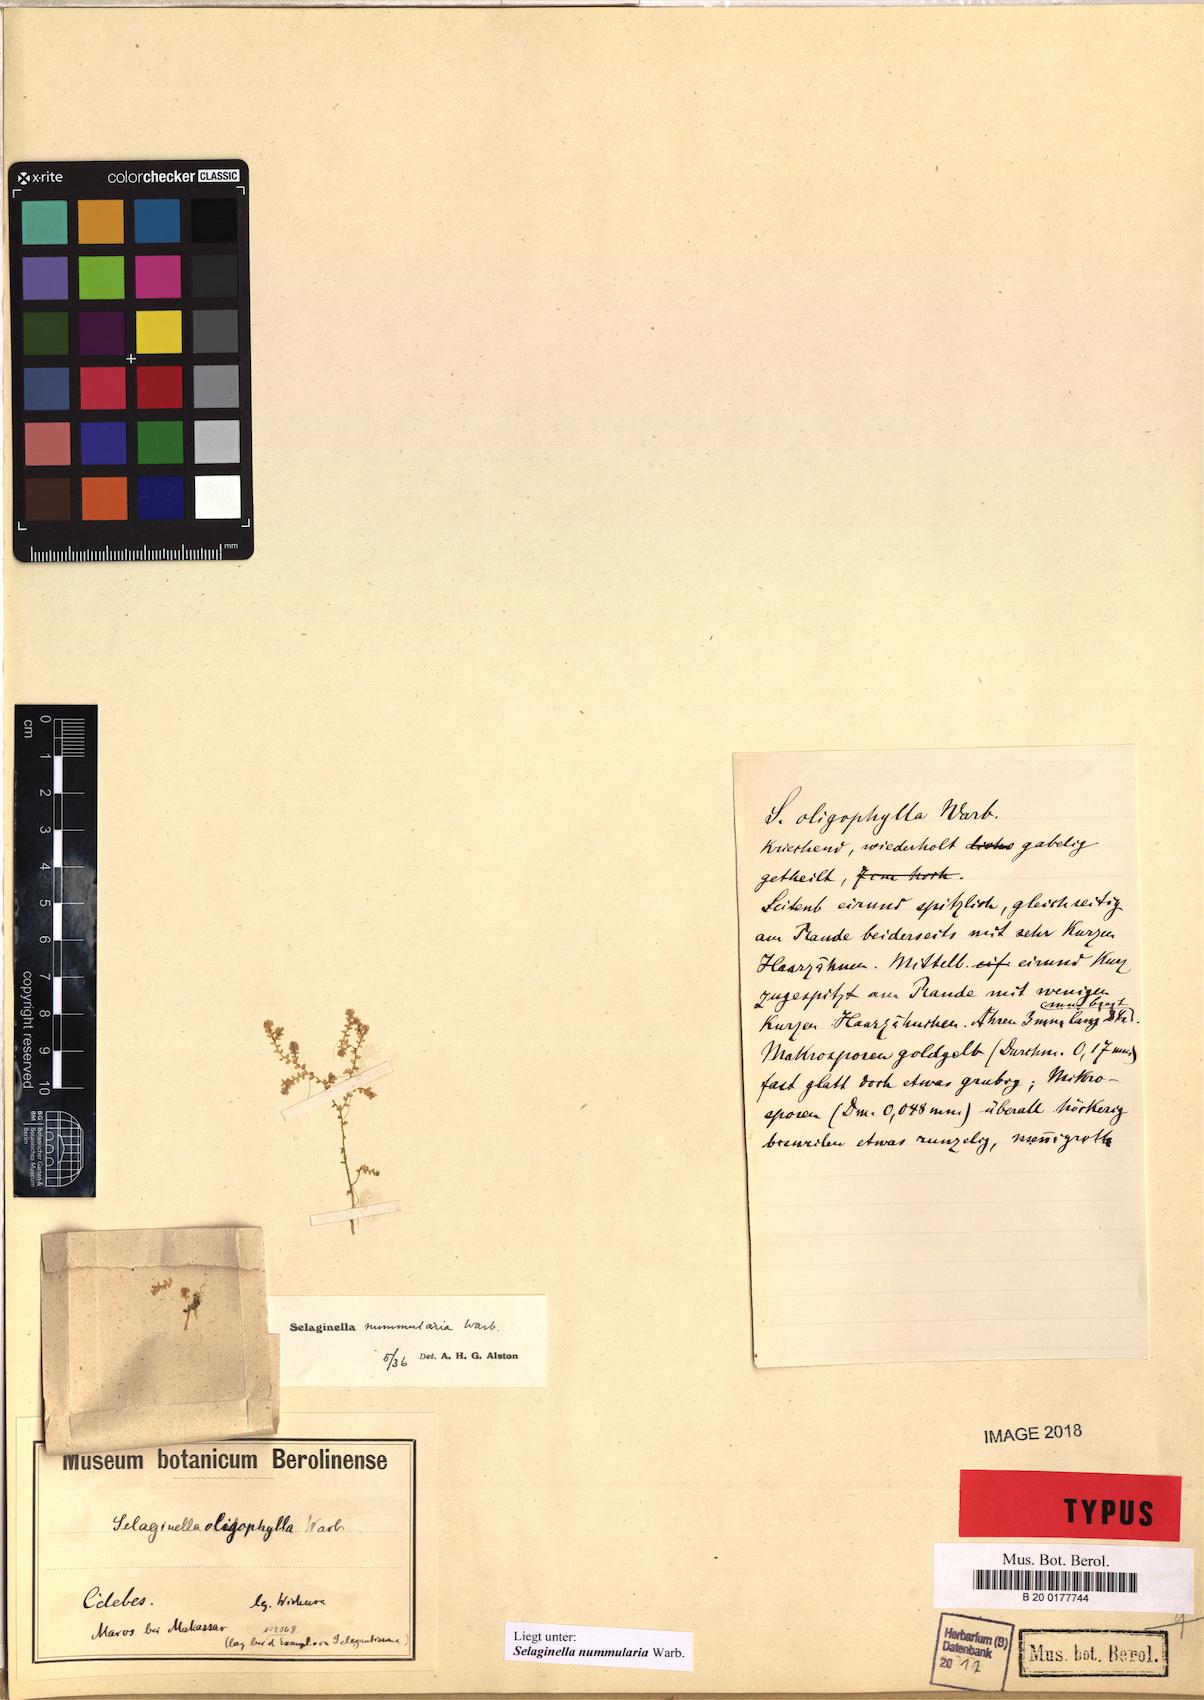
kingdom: Plantae
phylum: Tracheophyta
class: Lycopodiopsida
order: Selaginellales
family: Selaginellaceae
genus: Selaginella
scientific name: Selaginella nummularia
